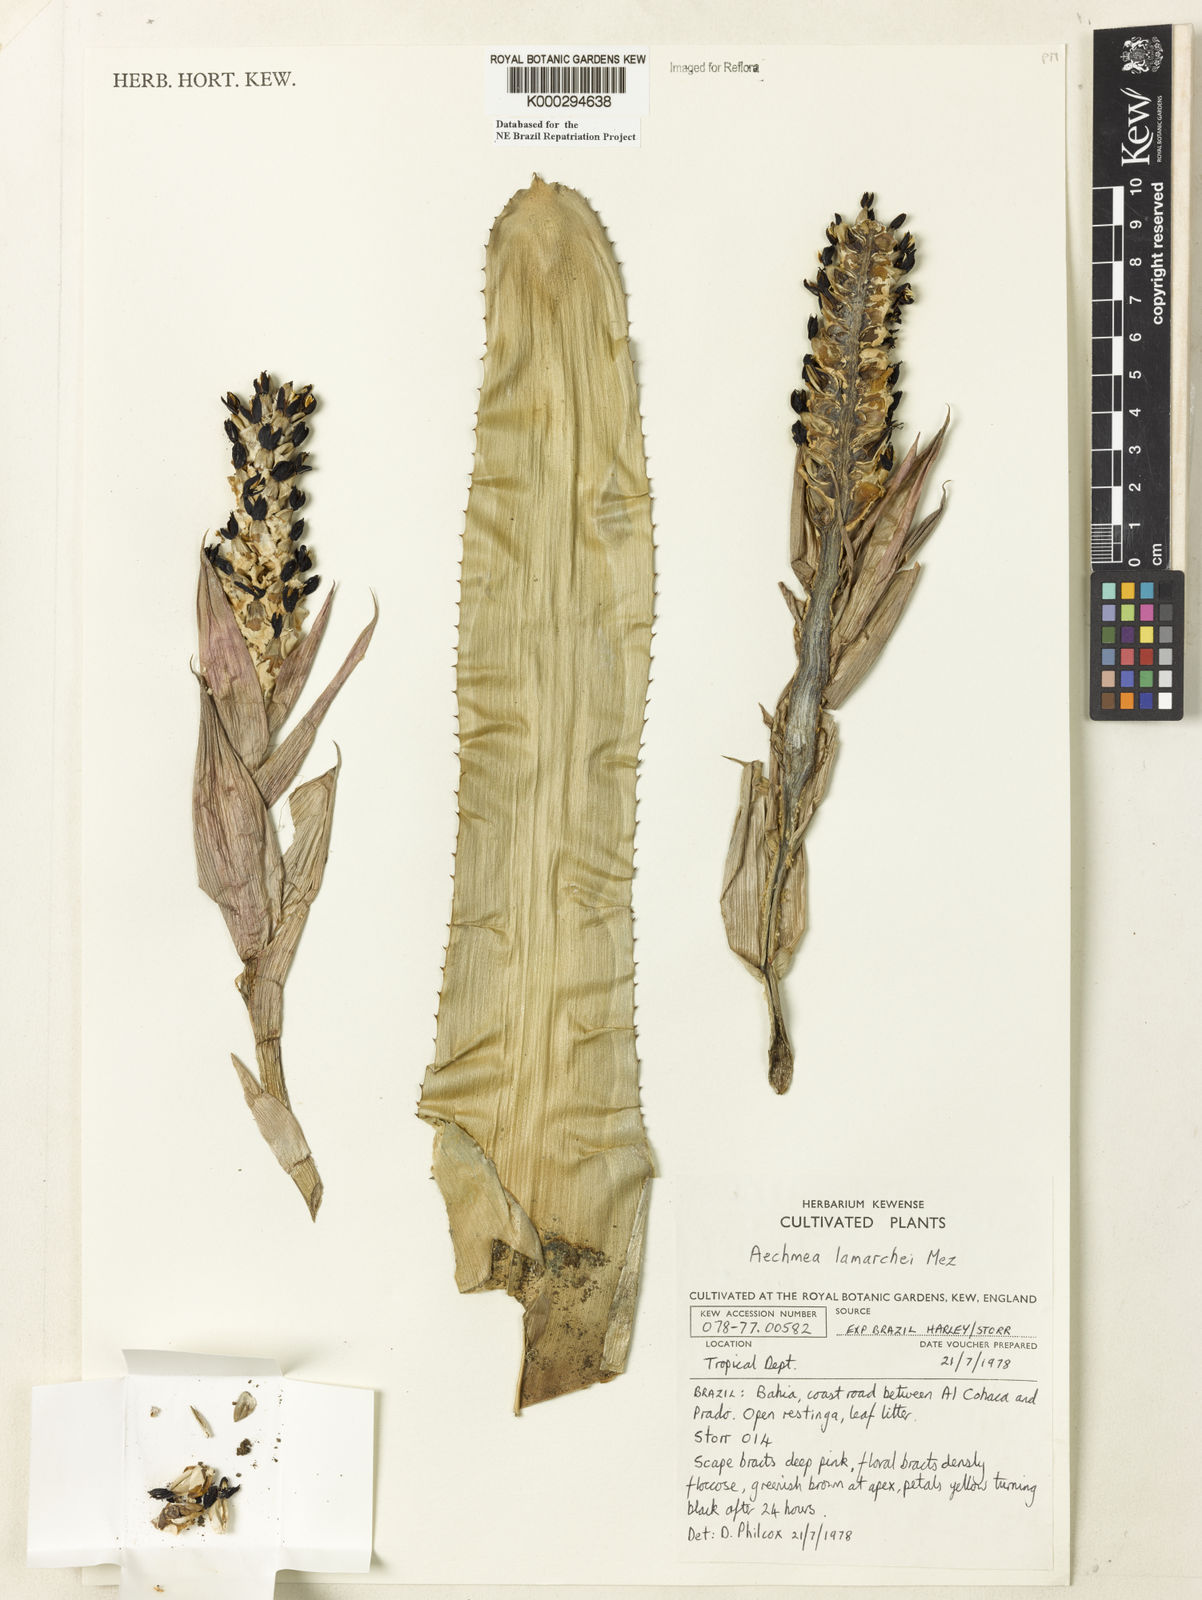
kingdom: Plantae
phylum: Tracheophyta
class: Liliopsida
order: Poales
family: Bromeliaceae
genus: Aechmea
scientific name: Aechmea lamarchei
